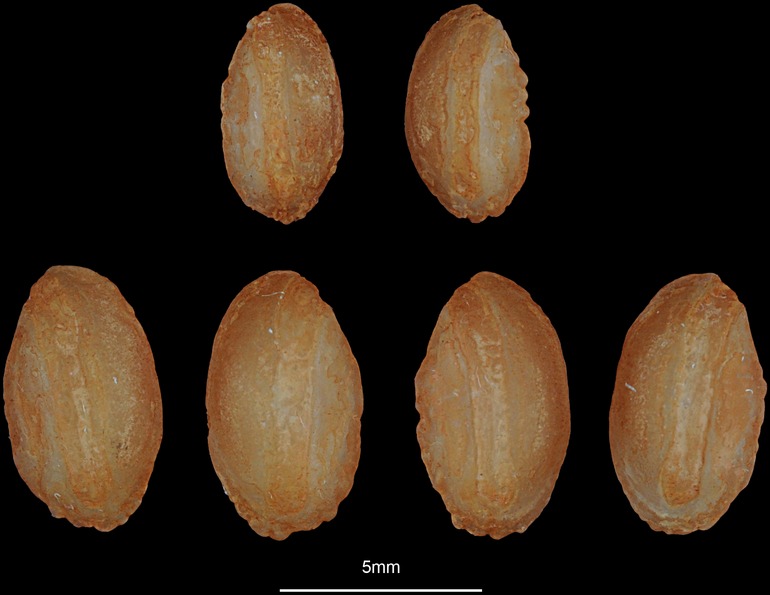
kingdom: Animalia
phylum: Chordata
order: Perciformes
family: Percidae
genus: Gymnocephalus
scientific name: Gymnocephalus schraetser
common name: Schraetzer
